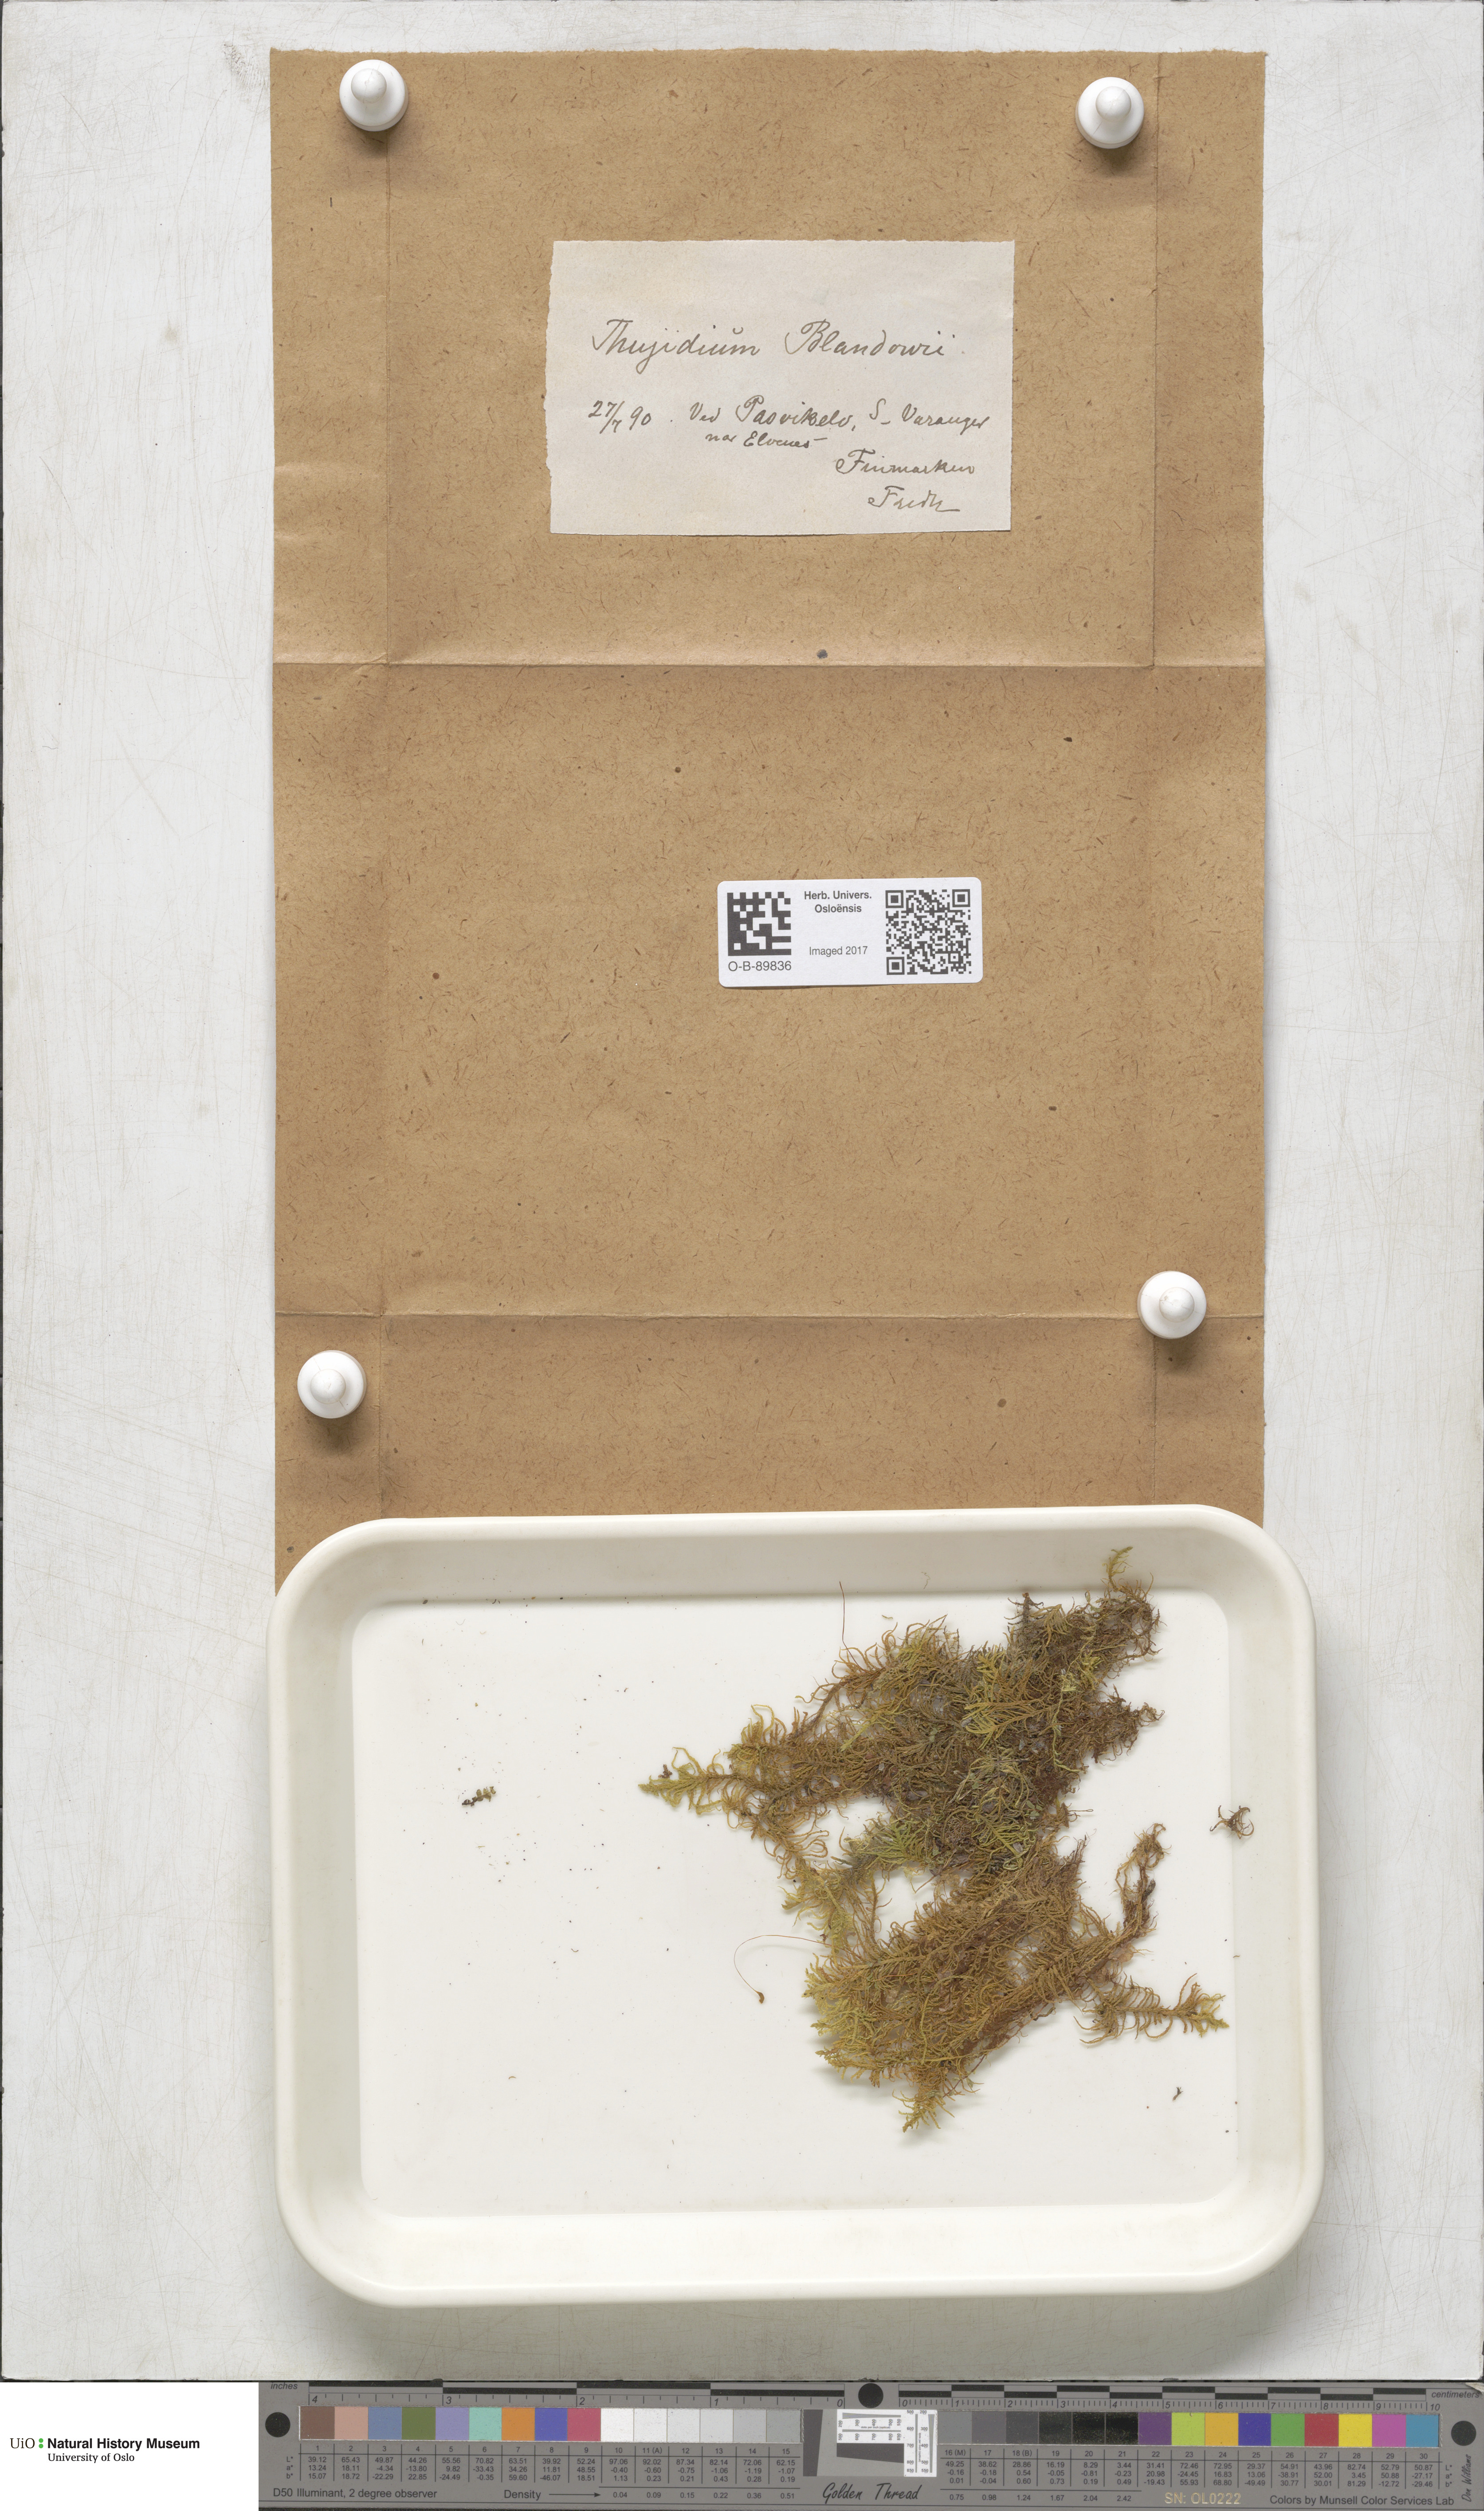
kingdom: Plantae
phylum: Bryophyta
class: Bryopsida
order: Hypnales
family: Helodiaceae
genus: Helodium
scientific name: Helodium blandowii
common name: Blandow's tamarisk-moss
